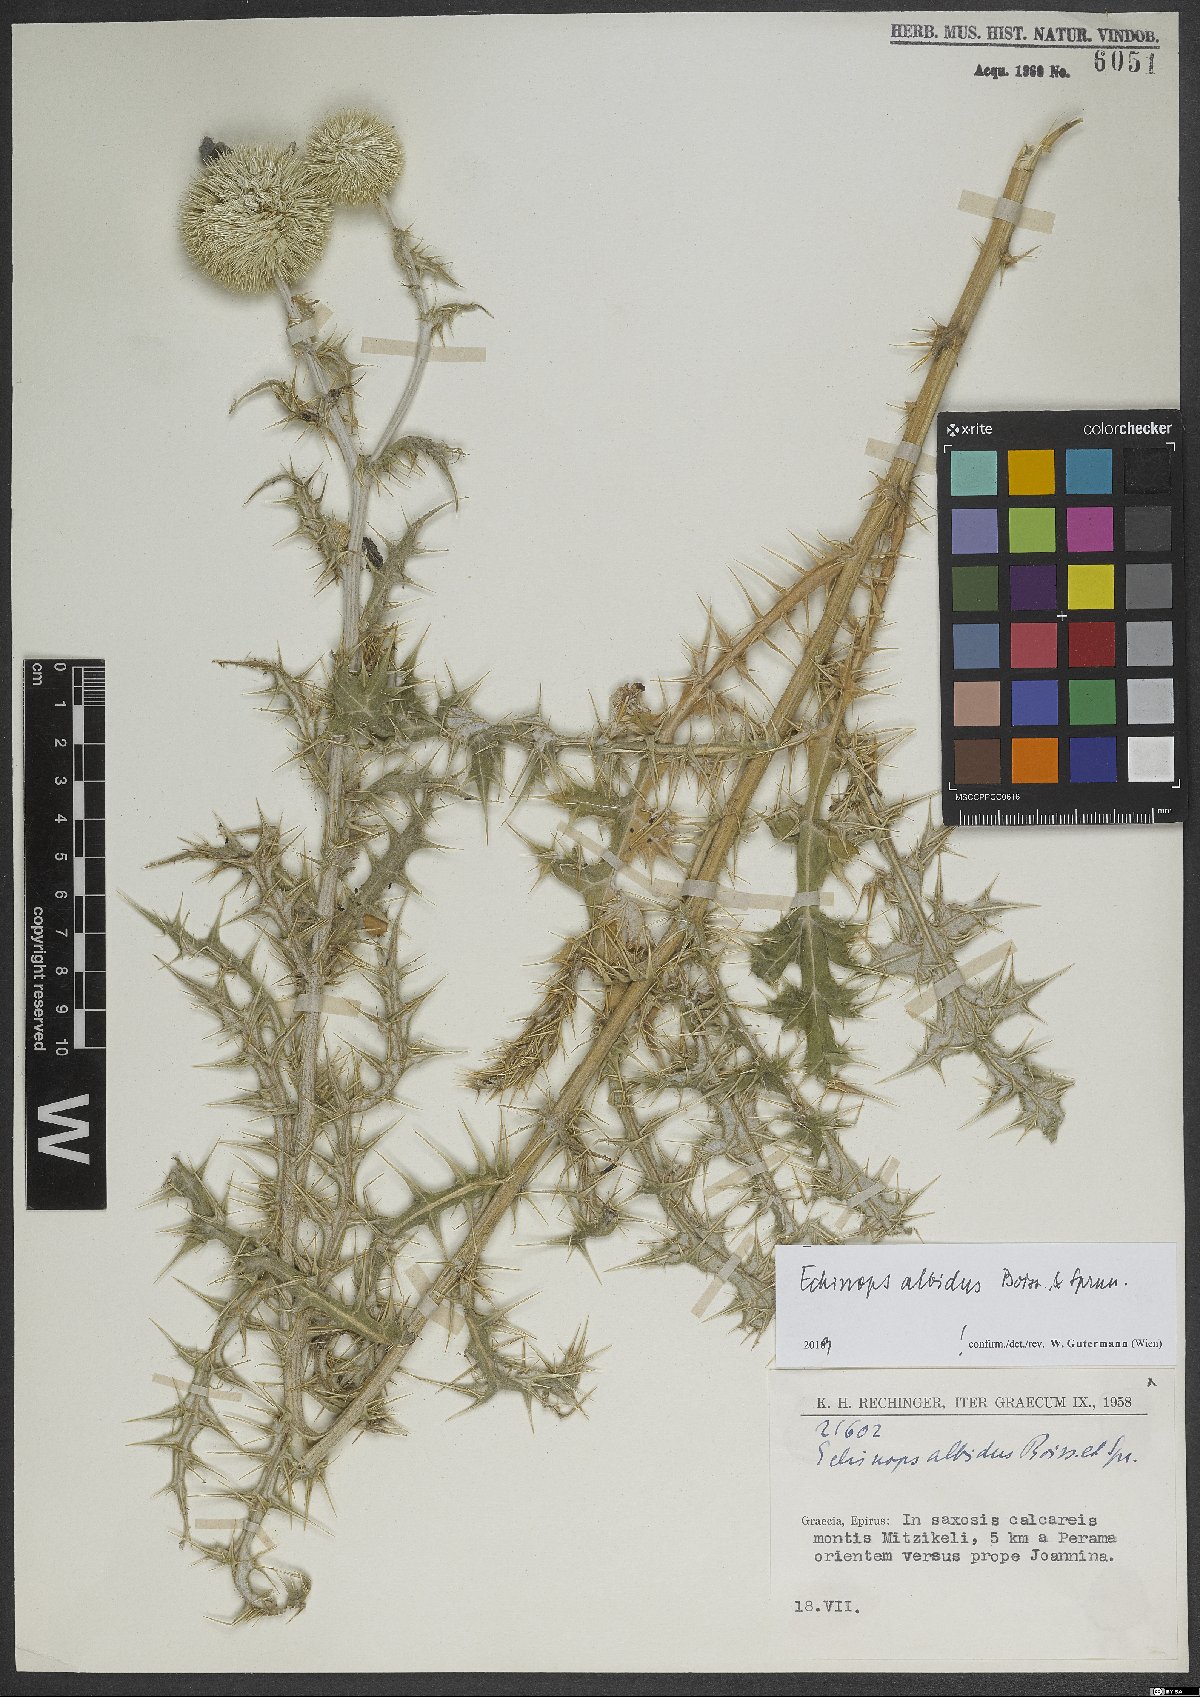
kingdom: Plantae
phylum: Tracheophyta
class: Magnoliopsida
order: Asterales
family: Asteraceae
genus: Echinops
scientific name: Echinops sphaerocephalus
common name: Glandular globe-thistle
